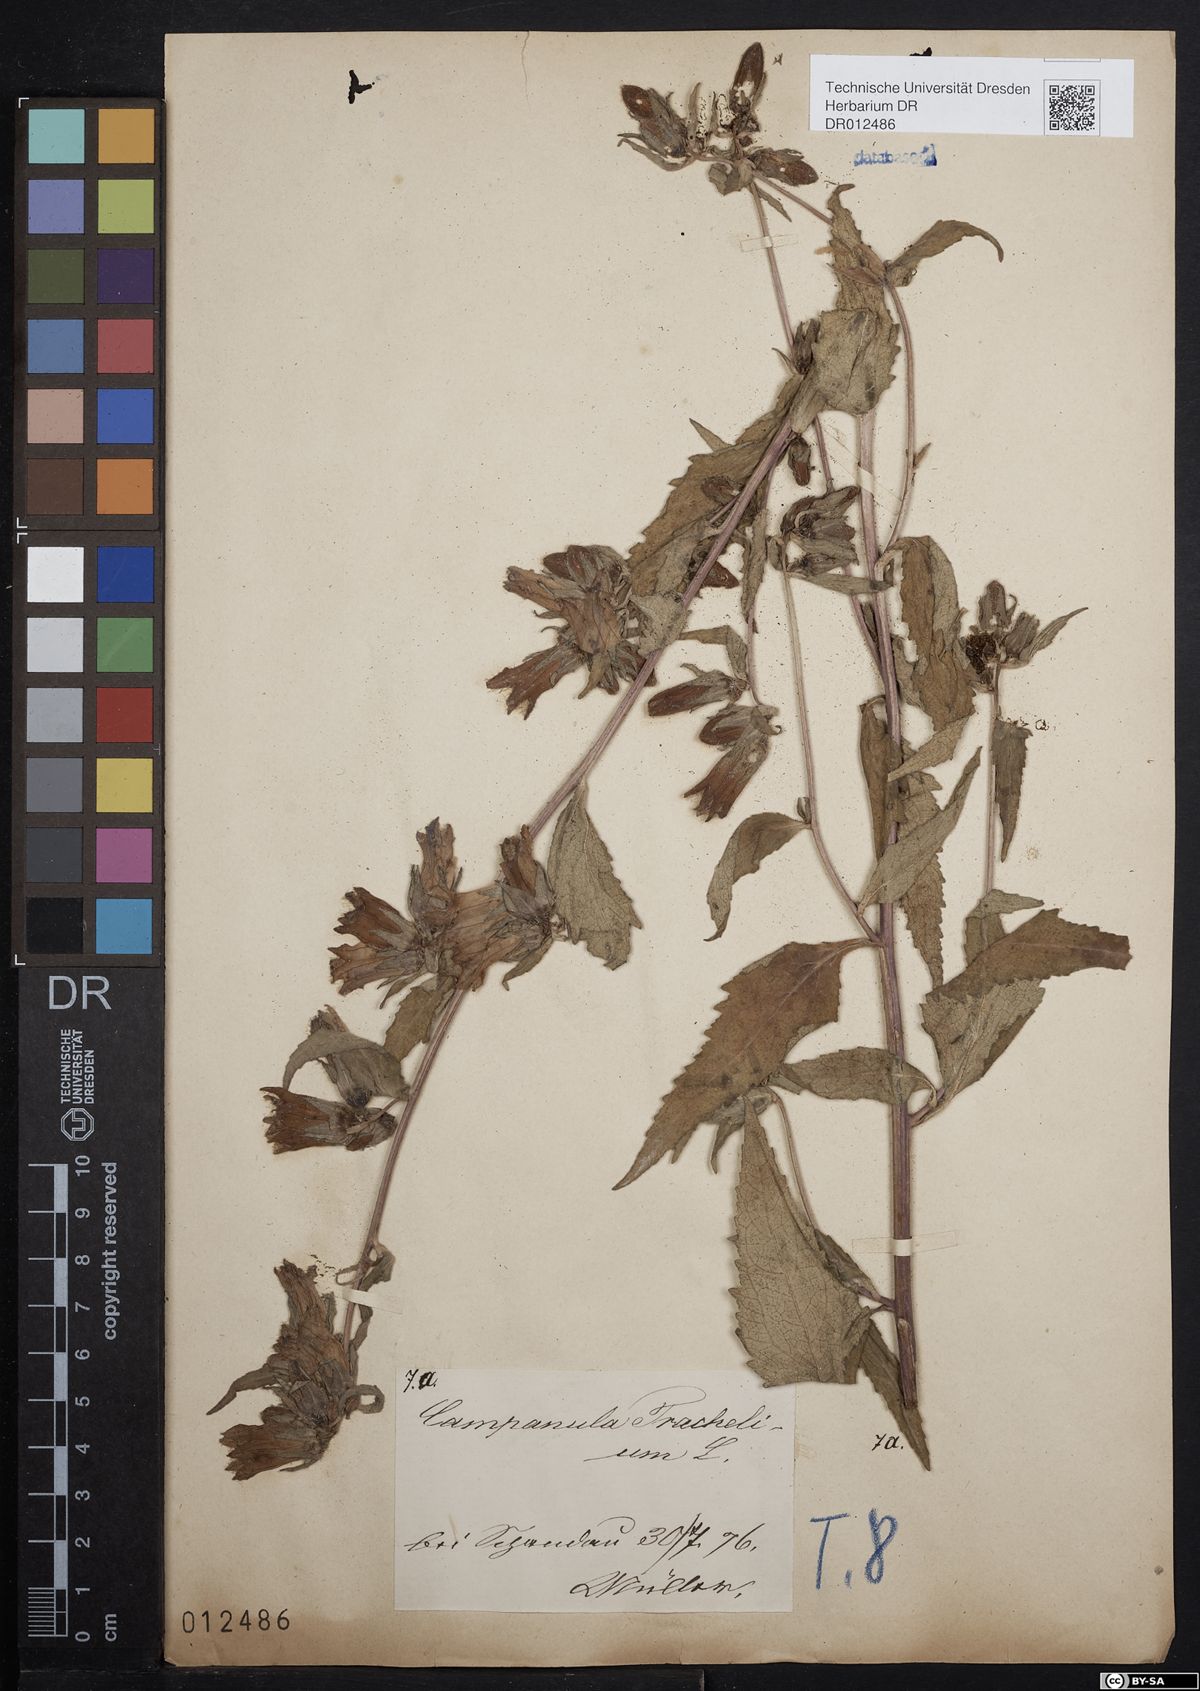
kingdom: Plantae
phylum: Tracheophyta
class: Magnoliopsida
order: Asterales
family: Campanulaceae
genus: Campanula
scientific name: Campanula trachelium
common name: Nettle-leaved bellflower
